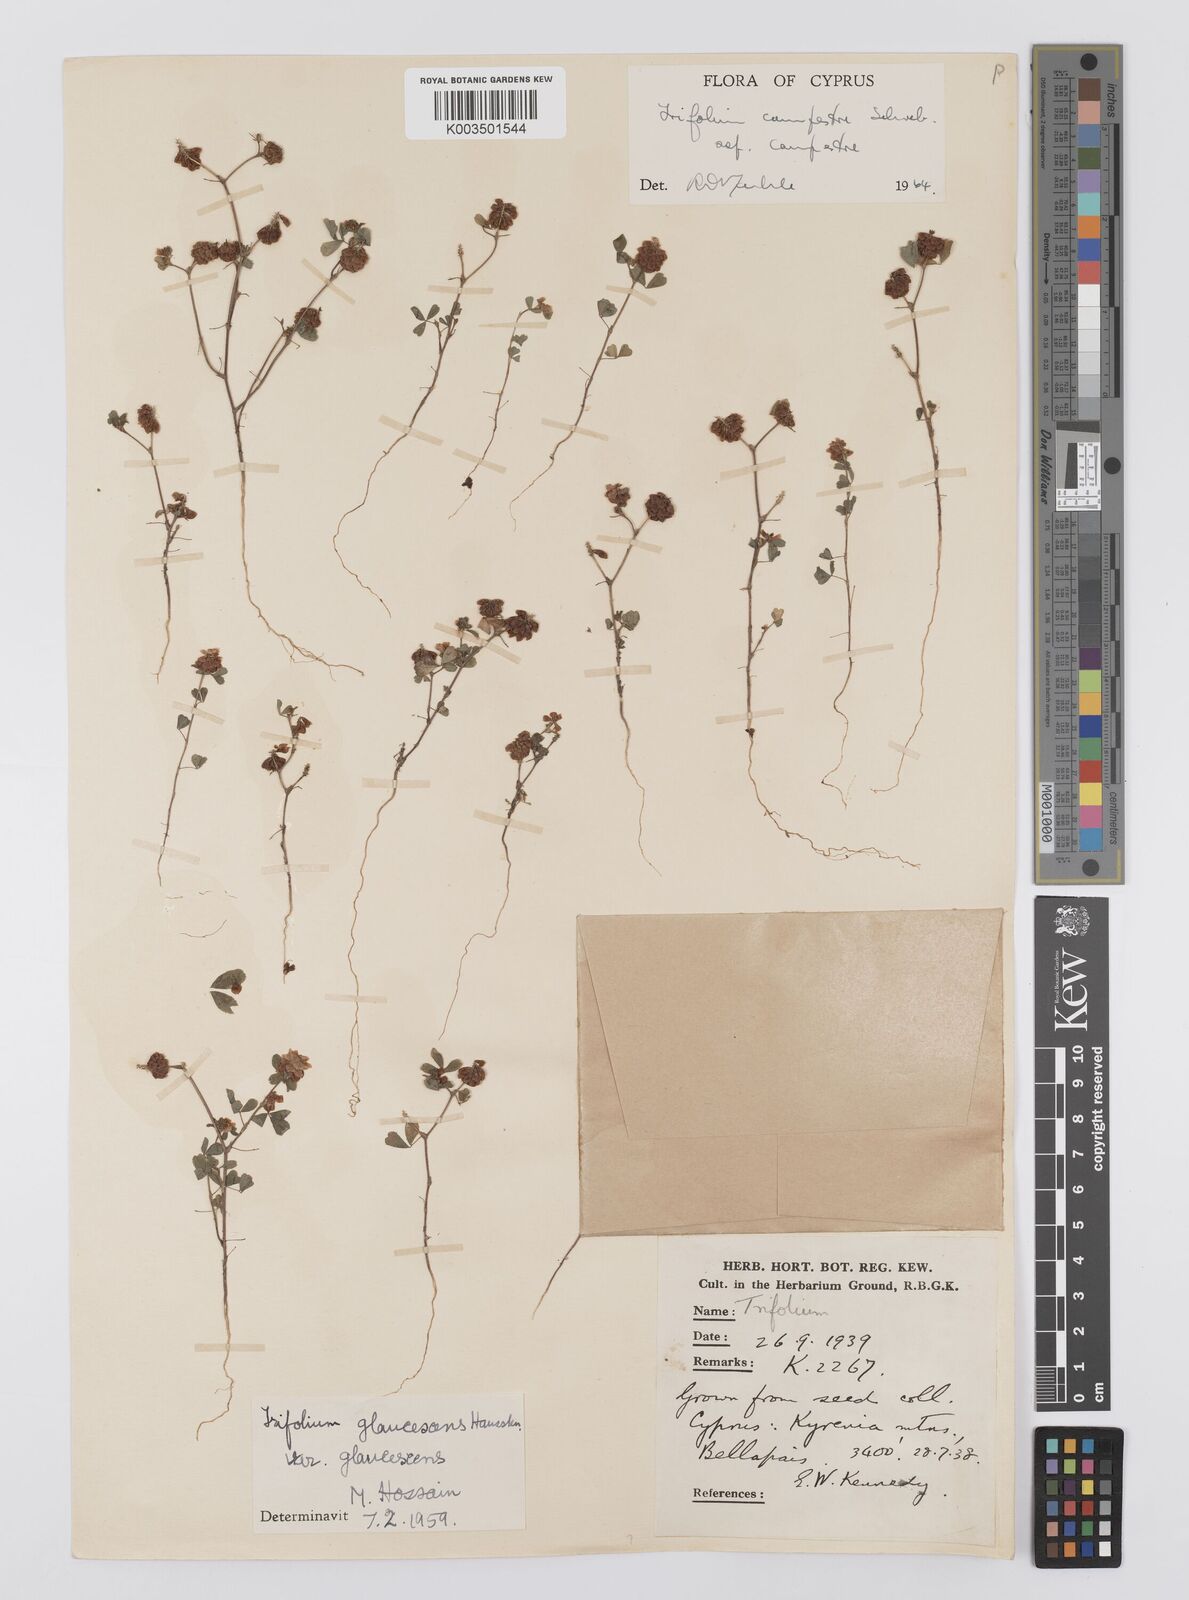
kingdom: Plantae
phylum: Tracheophyta
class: Magnoliopsida
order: Fabales
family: Fabaceae
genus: Trifolium
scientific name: Trifolium campestre
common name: Field clover
